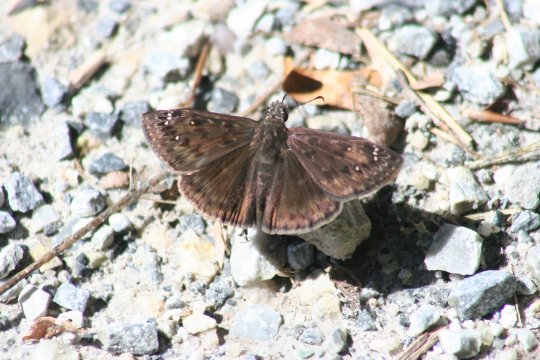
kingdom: Animalia
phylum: Arthropoda
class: Insecta
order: Lepidoptera
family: Hesperiidae
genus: Gesta
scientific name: Gesta
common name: Horace's Duskywing
